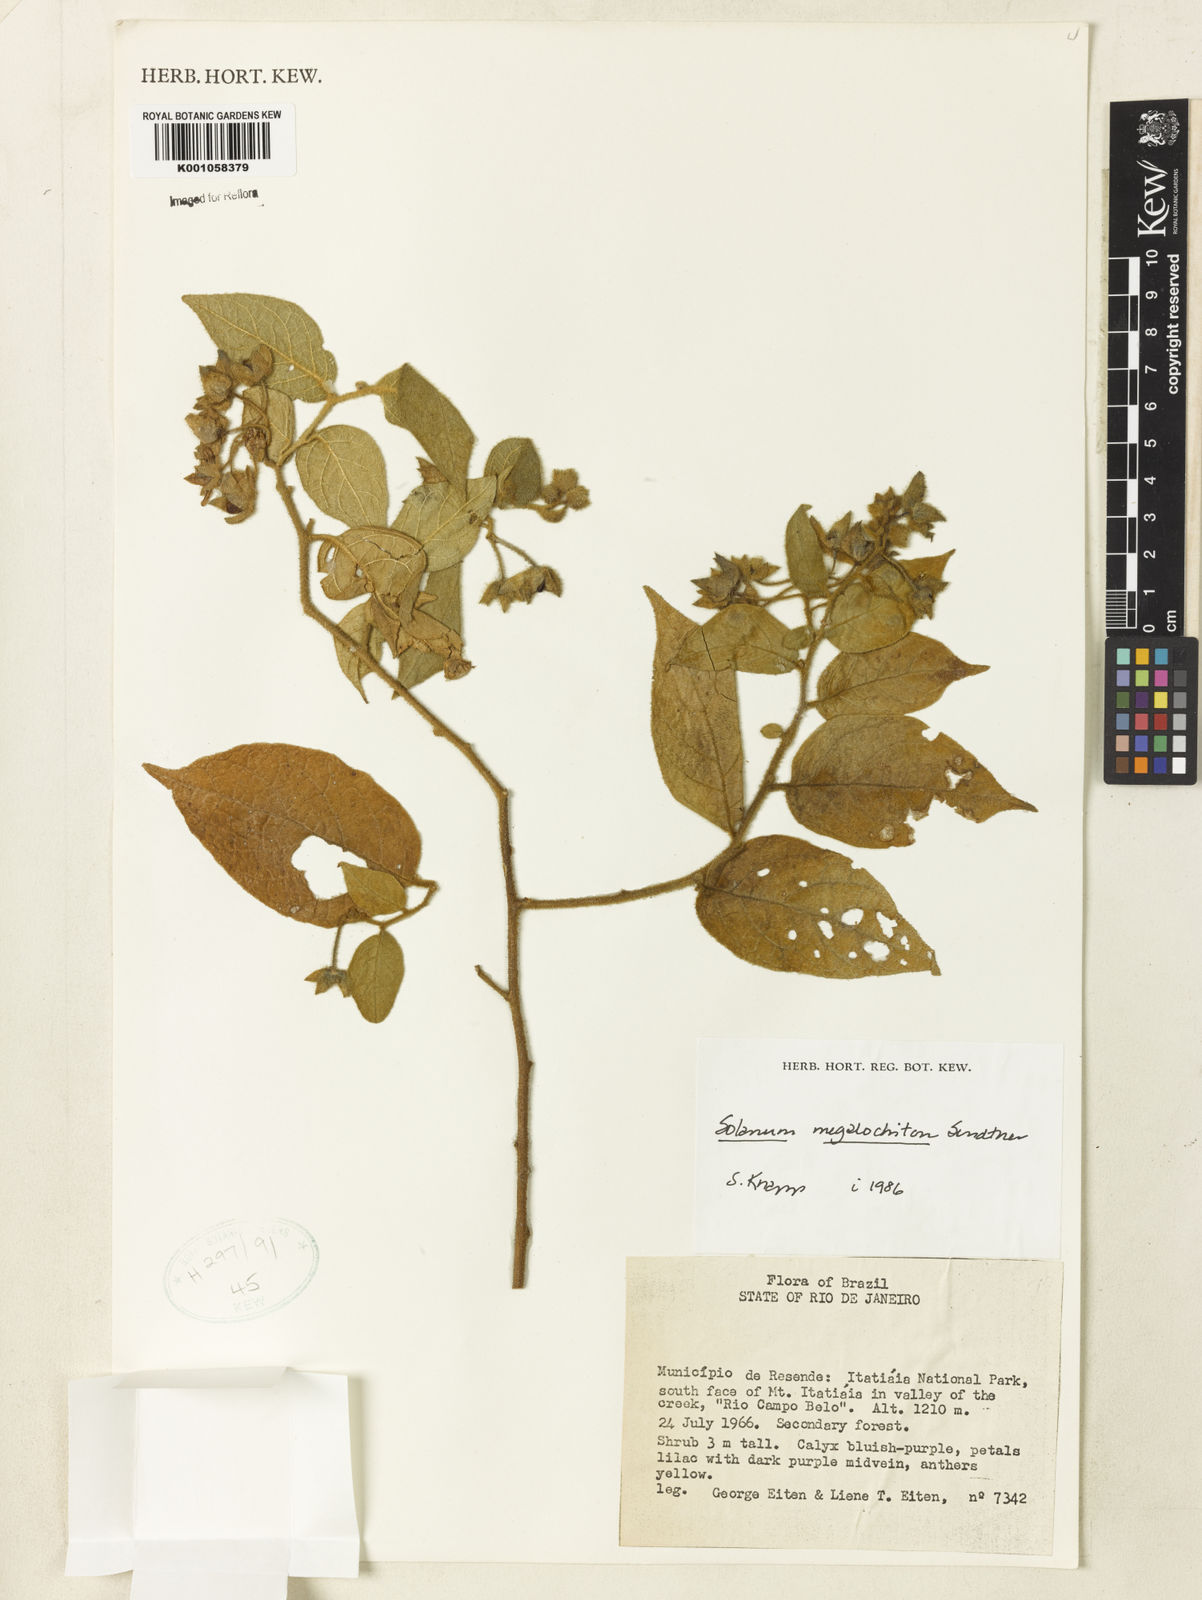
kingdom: Plantae
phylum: Tracheophyta
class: Magnoliopsida
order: Solanales
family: Solanaceae
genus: Solanum
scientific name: Solanum megalochiton
